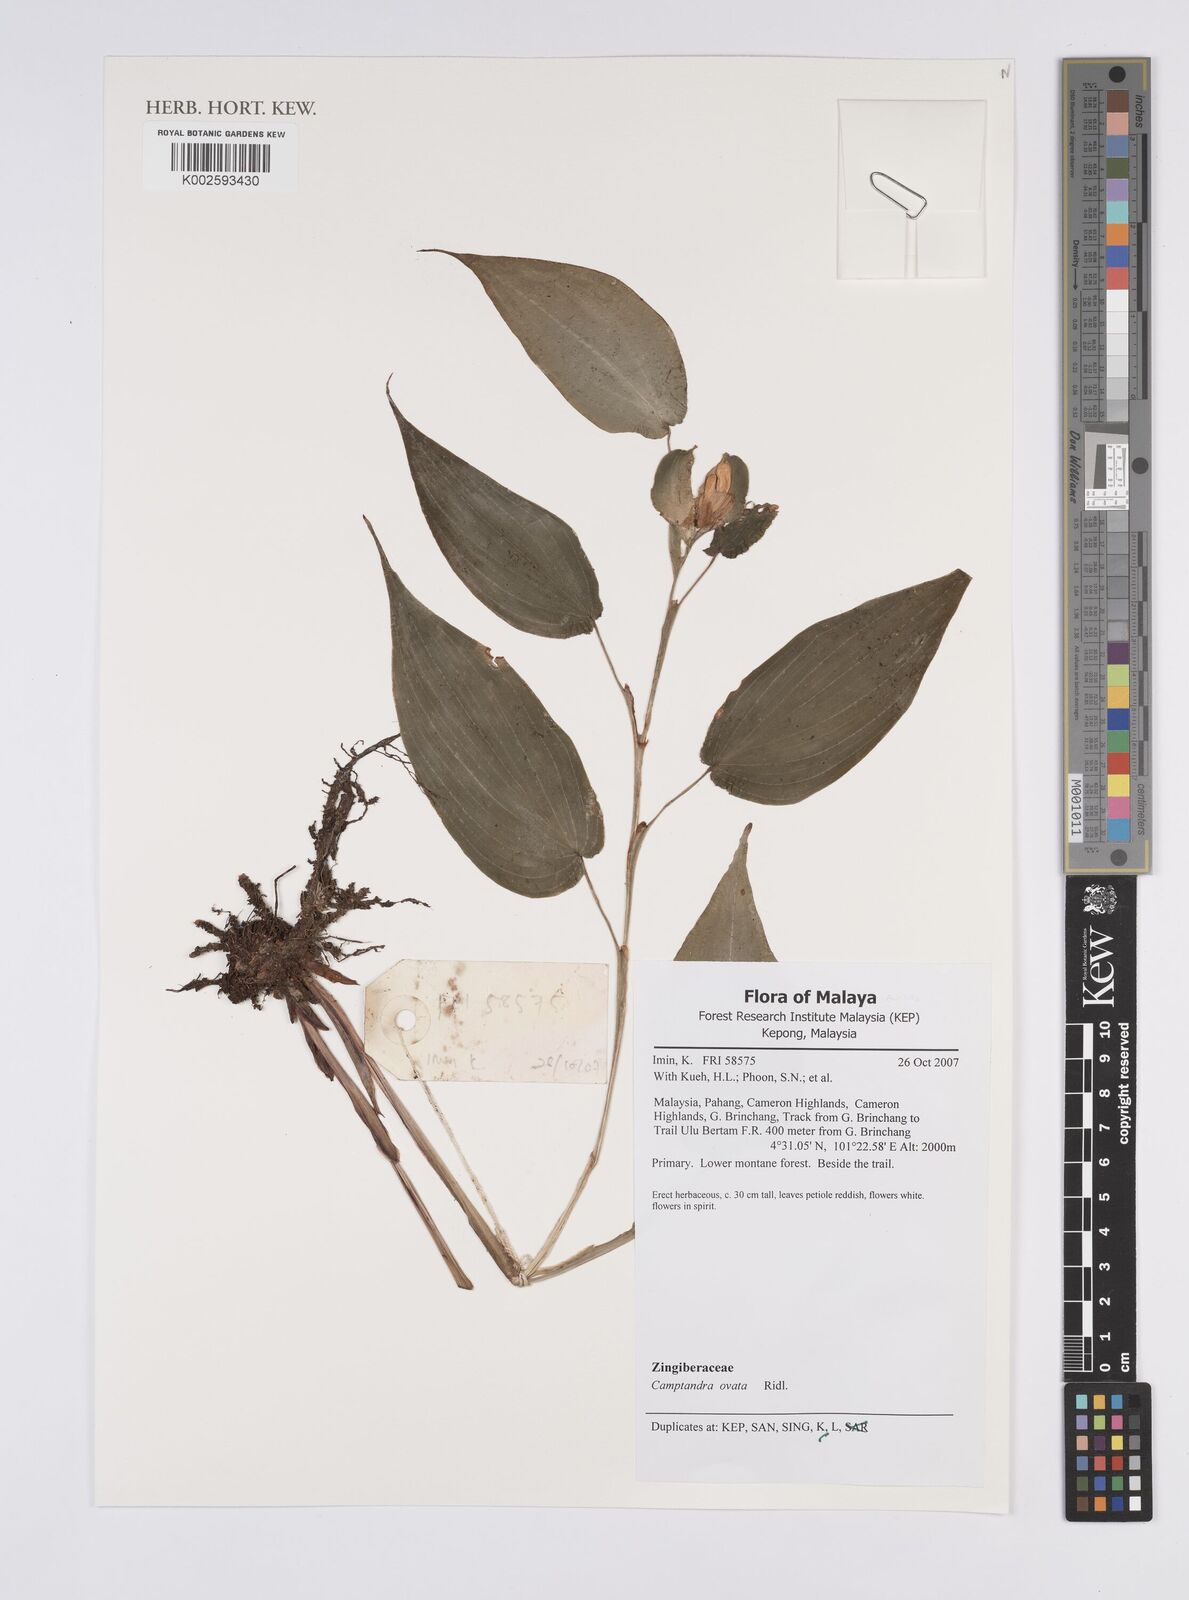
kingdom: Plantae
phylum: Tracheophyta
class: Liliopsida
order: Zingiberales
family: Zingiberaceae
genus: Camptandra
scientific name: Camptandra ovata
